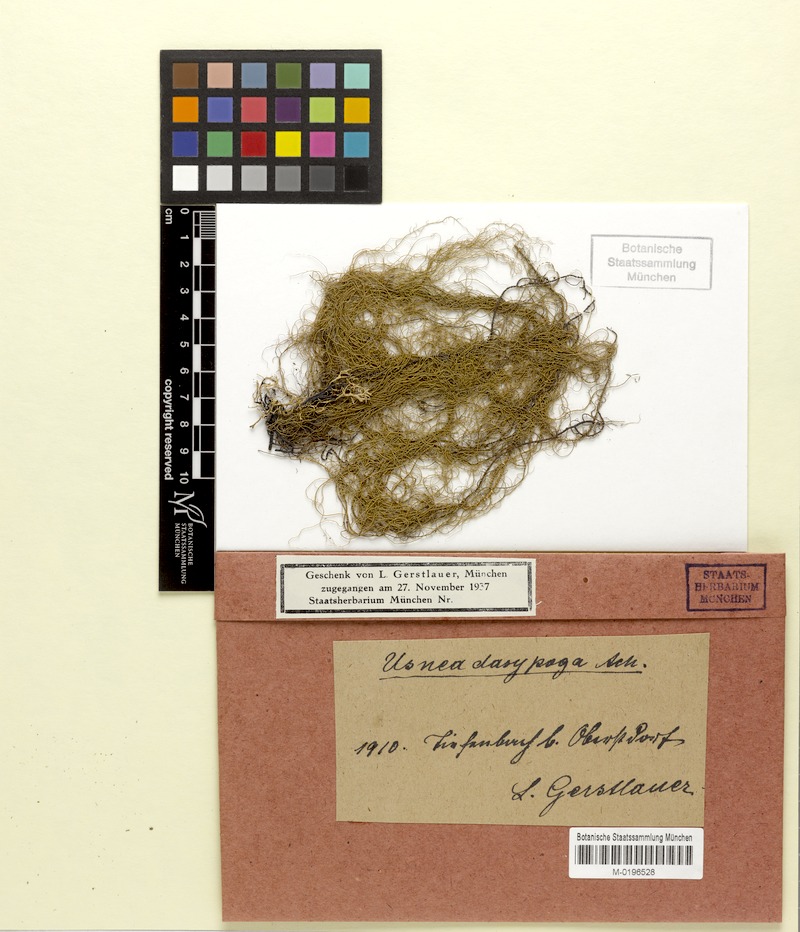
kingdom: Fungi
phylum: Ascomycota
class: Lecanoromycetes
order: Lecanorales
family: Parmeliaceae
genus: Usnea
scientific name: Usnea dasopoga
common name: Fishbone beard lichen
